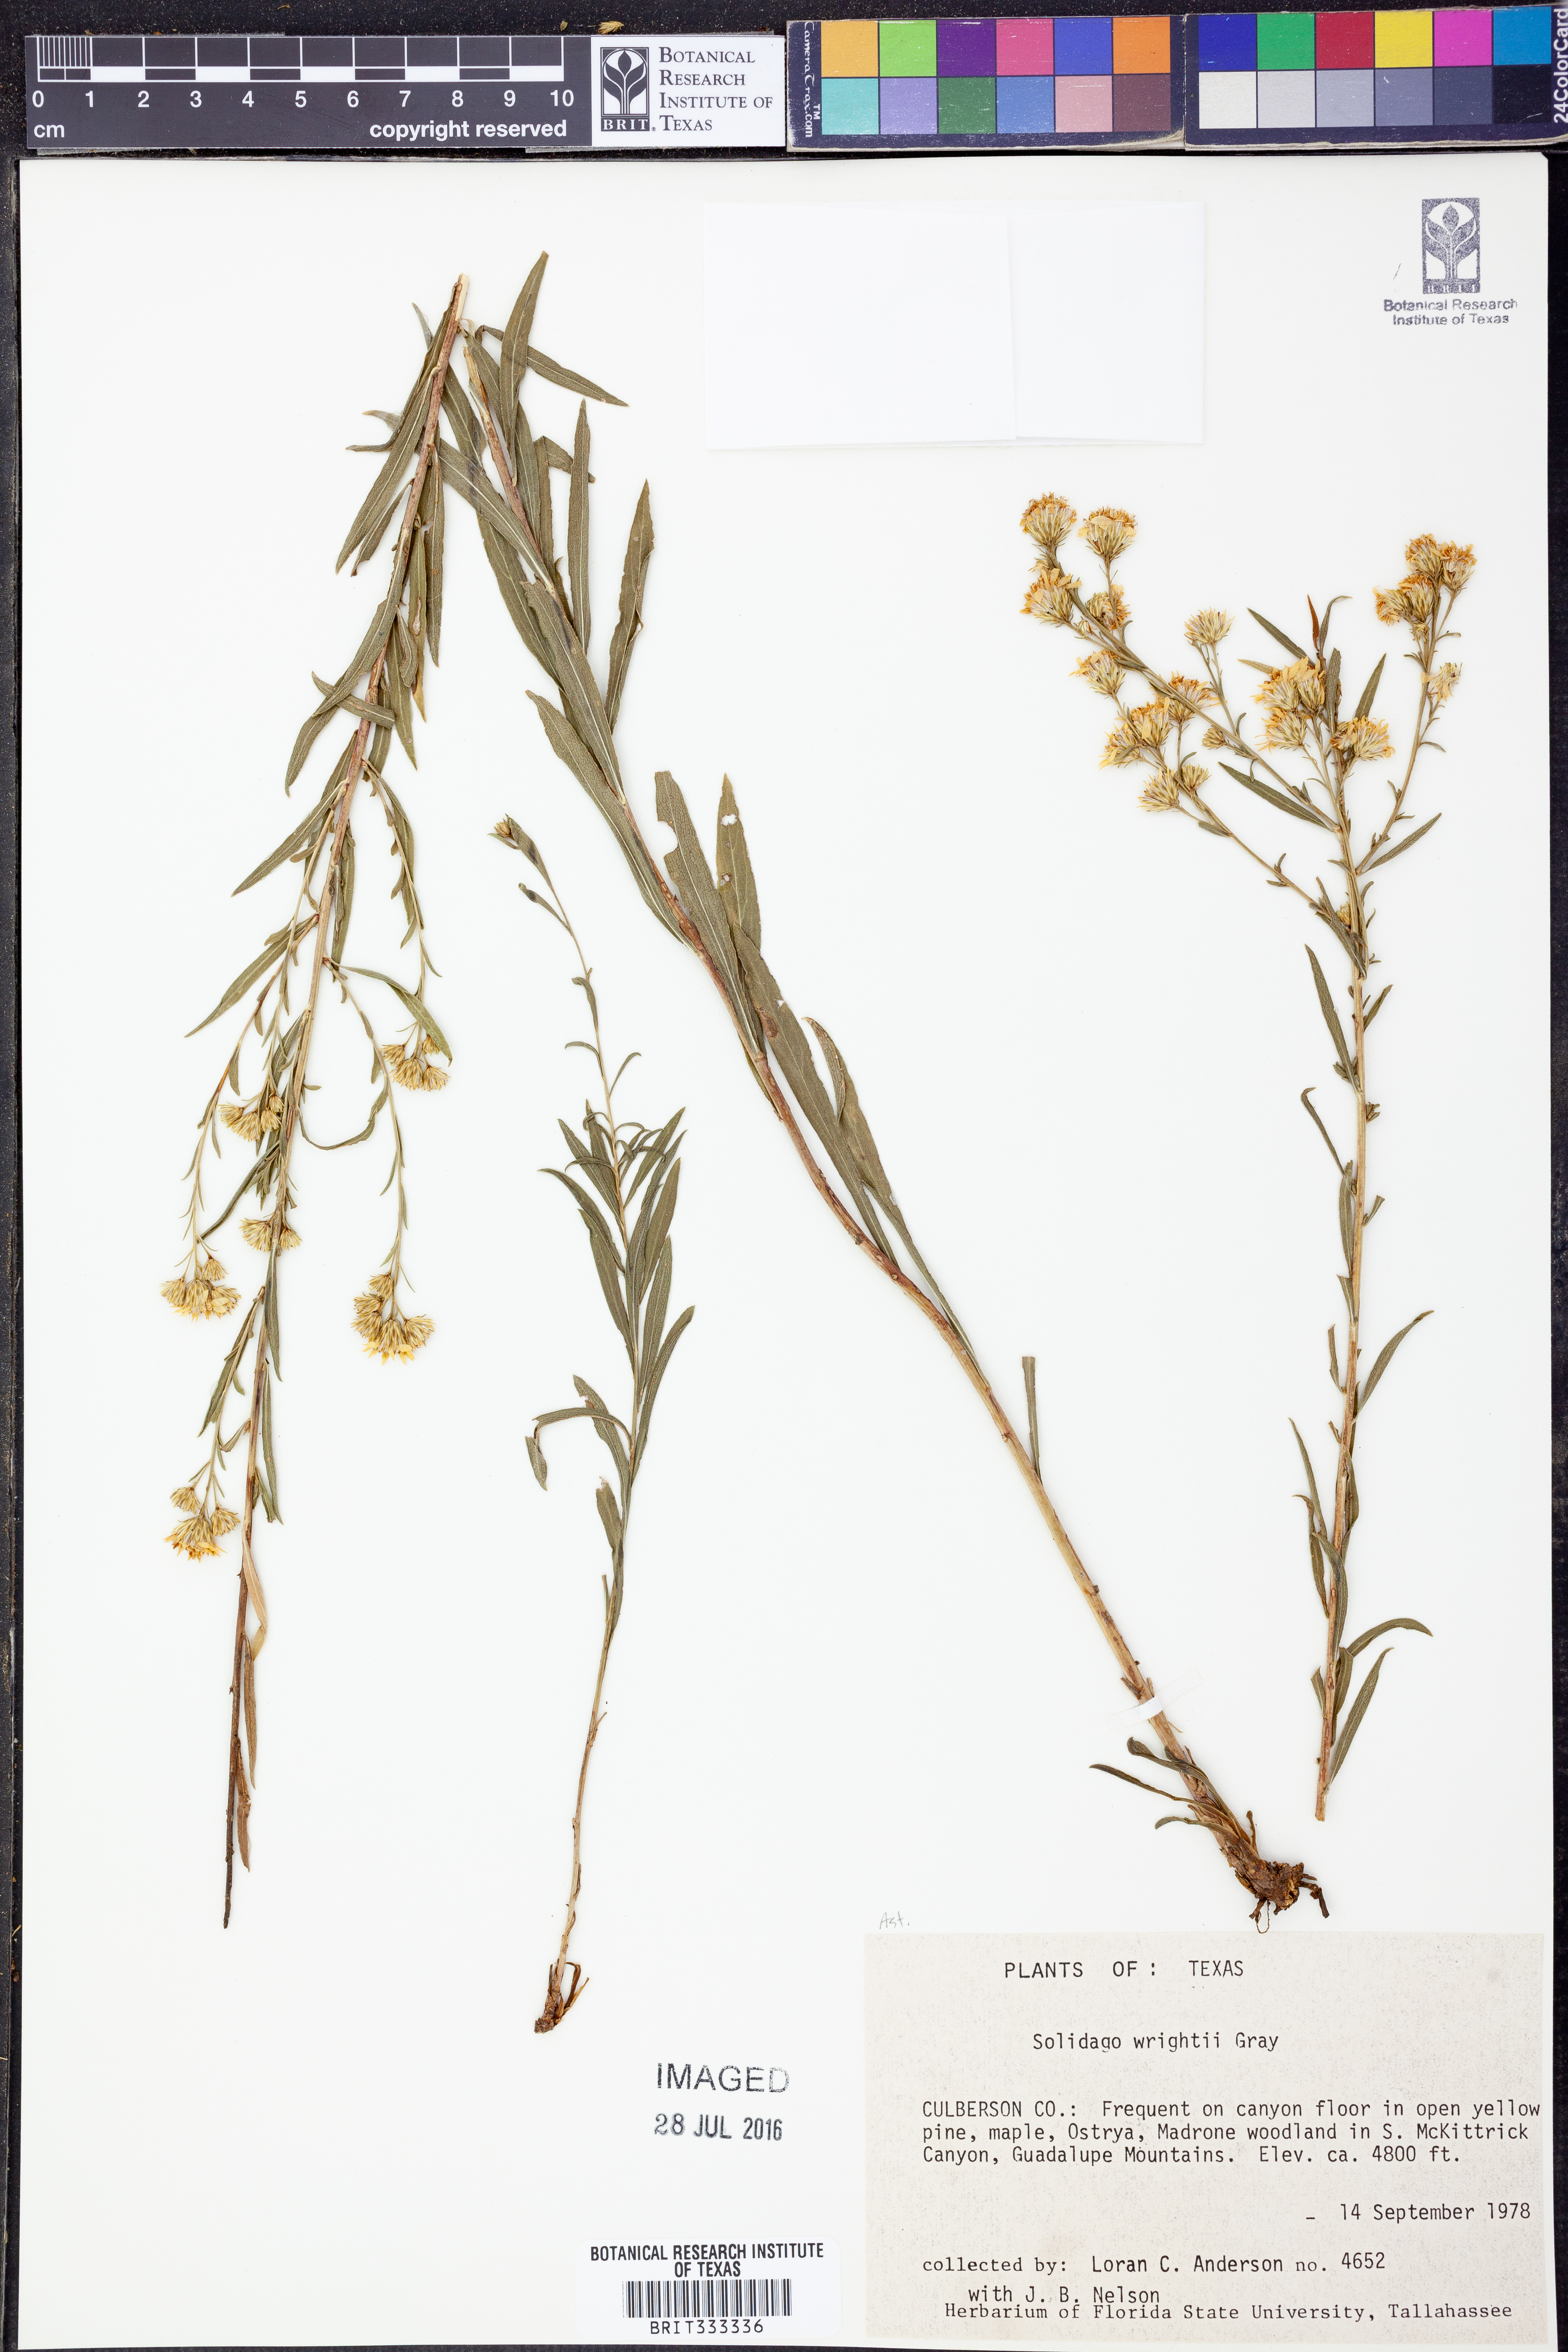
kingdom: Plantae
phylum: Tracheophyta
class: Magnoliopsida
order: Asterales
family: Asteraceae
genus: Solidago
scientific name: Solidago wrightii
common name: Wright's goldenrod
